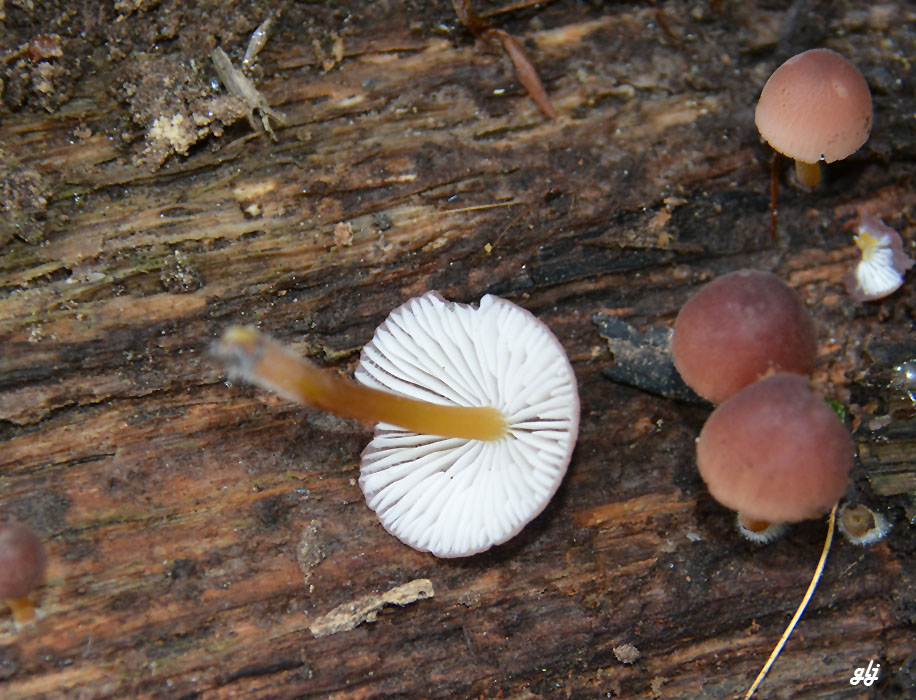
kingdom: Fungi
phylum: Basidiomycota
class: Agaricomycetes
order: Agaricales
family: Mycenaceae
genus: Mycena
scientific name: Mycena renati
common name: smuk huesvamp
